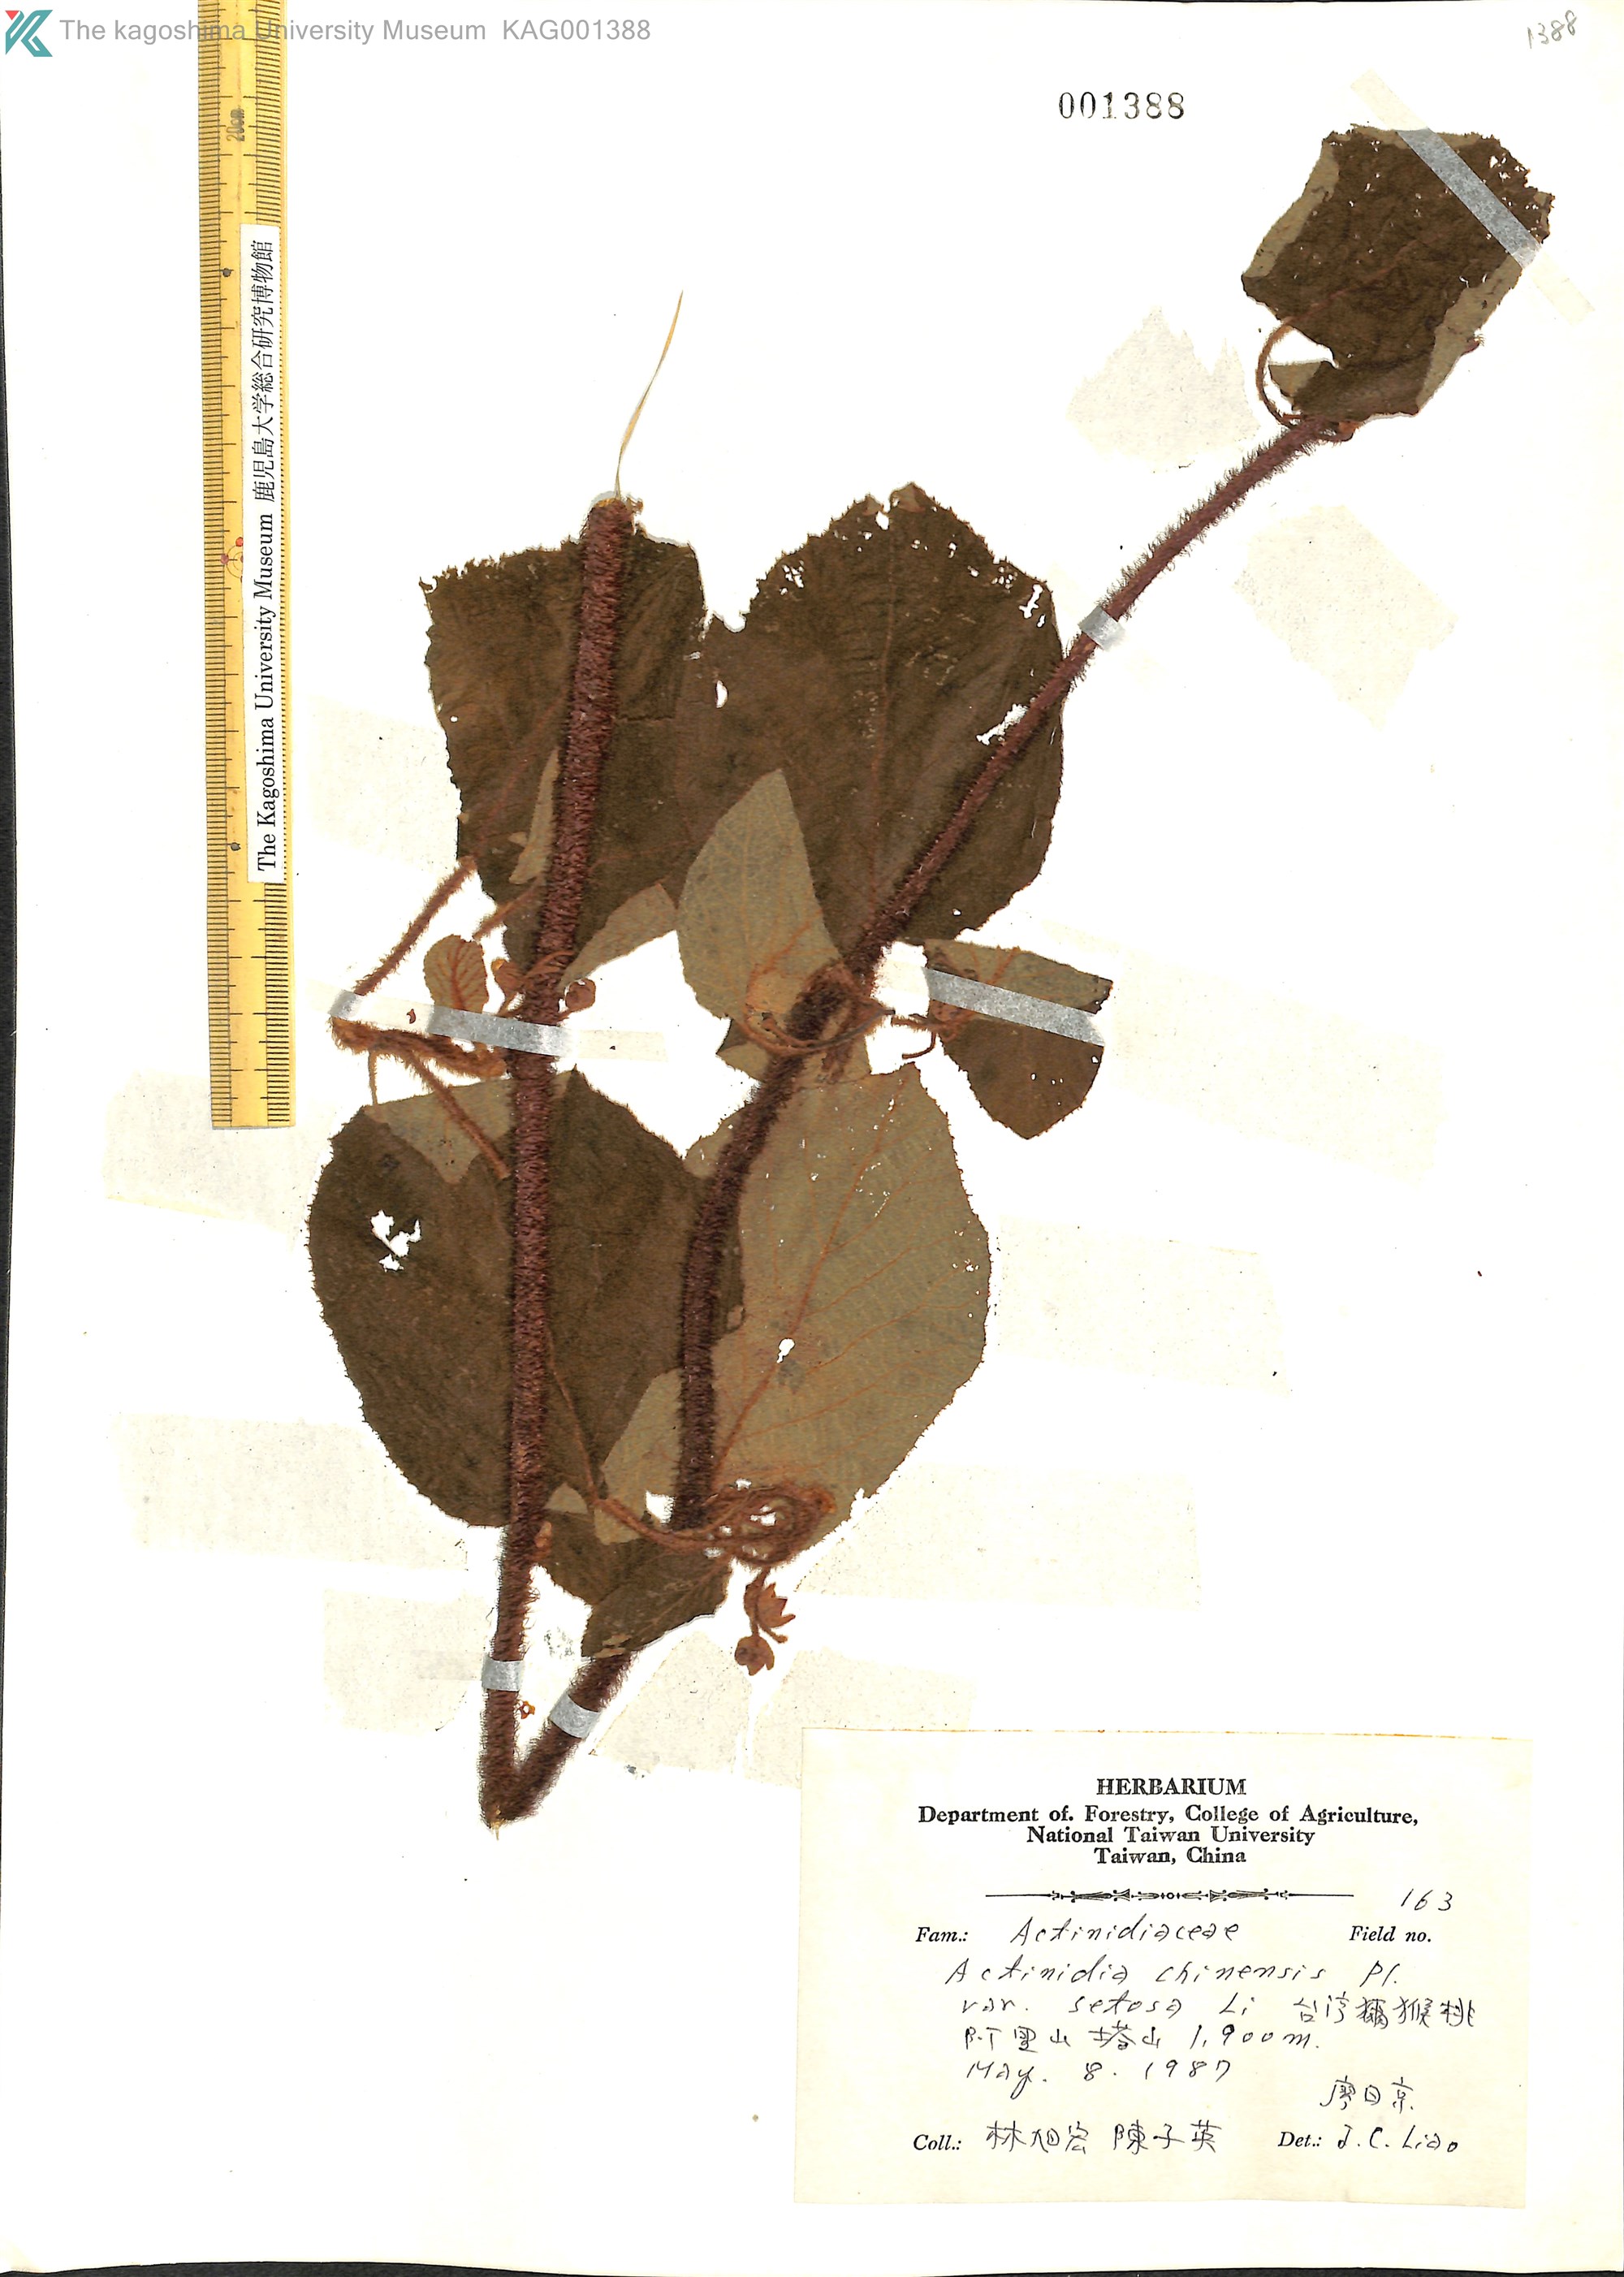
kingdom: Plantae
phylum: Tracheophyta
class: Magnoliopsida
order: Ericales
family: Actinidiaceae
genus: Actinidia
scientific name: Actinidia chinensis
